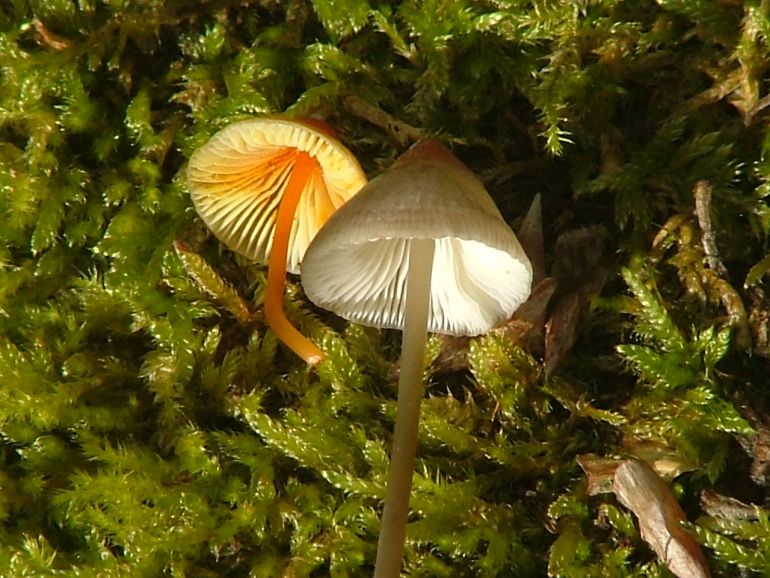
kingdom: Fungi
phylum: Basidiomycota
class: Agaricomycetes
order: Agaricales
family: Mycenaceae
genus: Mycena
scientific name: Mycena crocata
